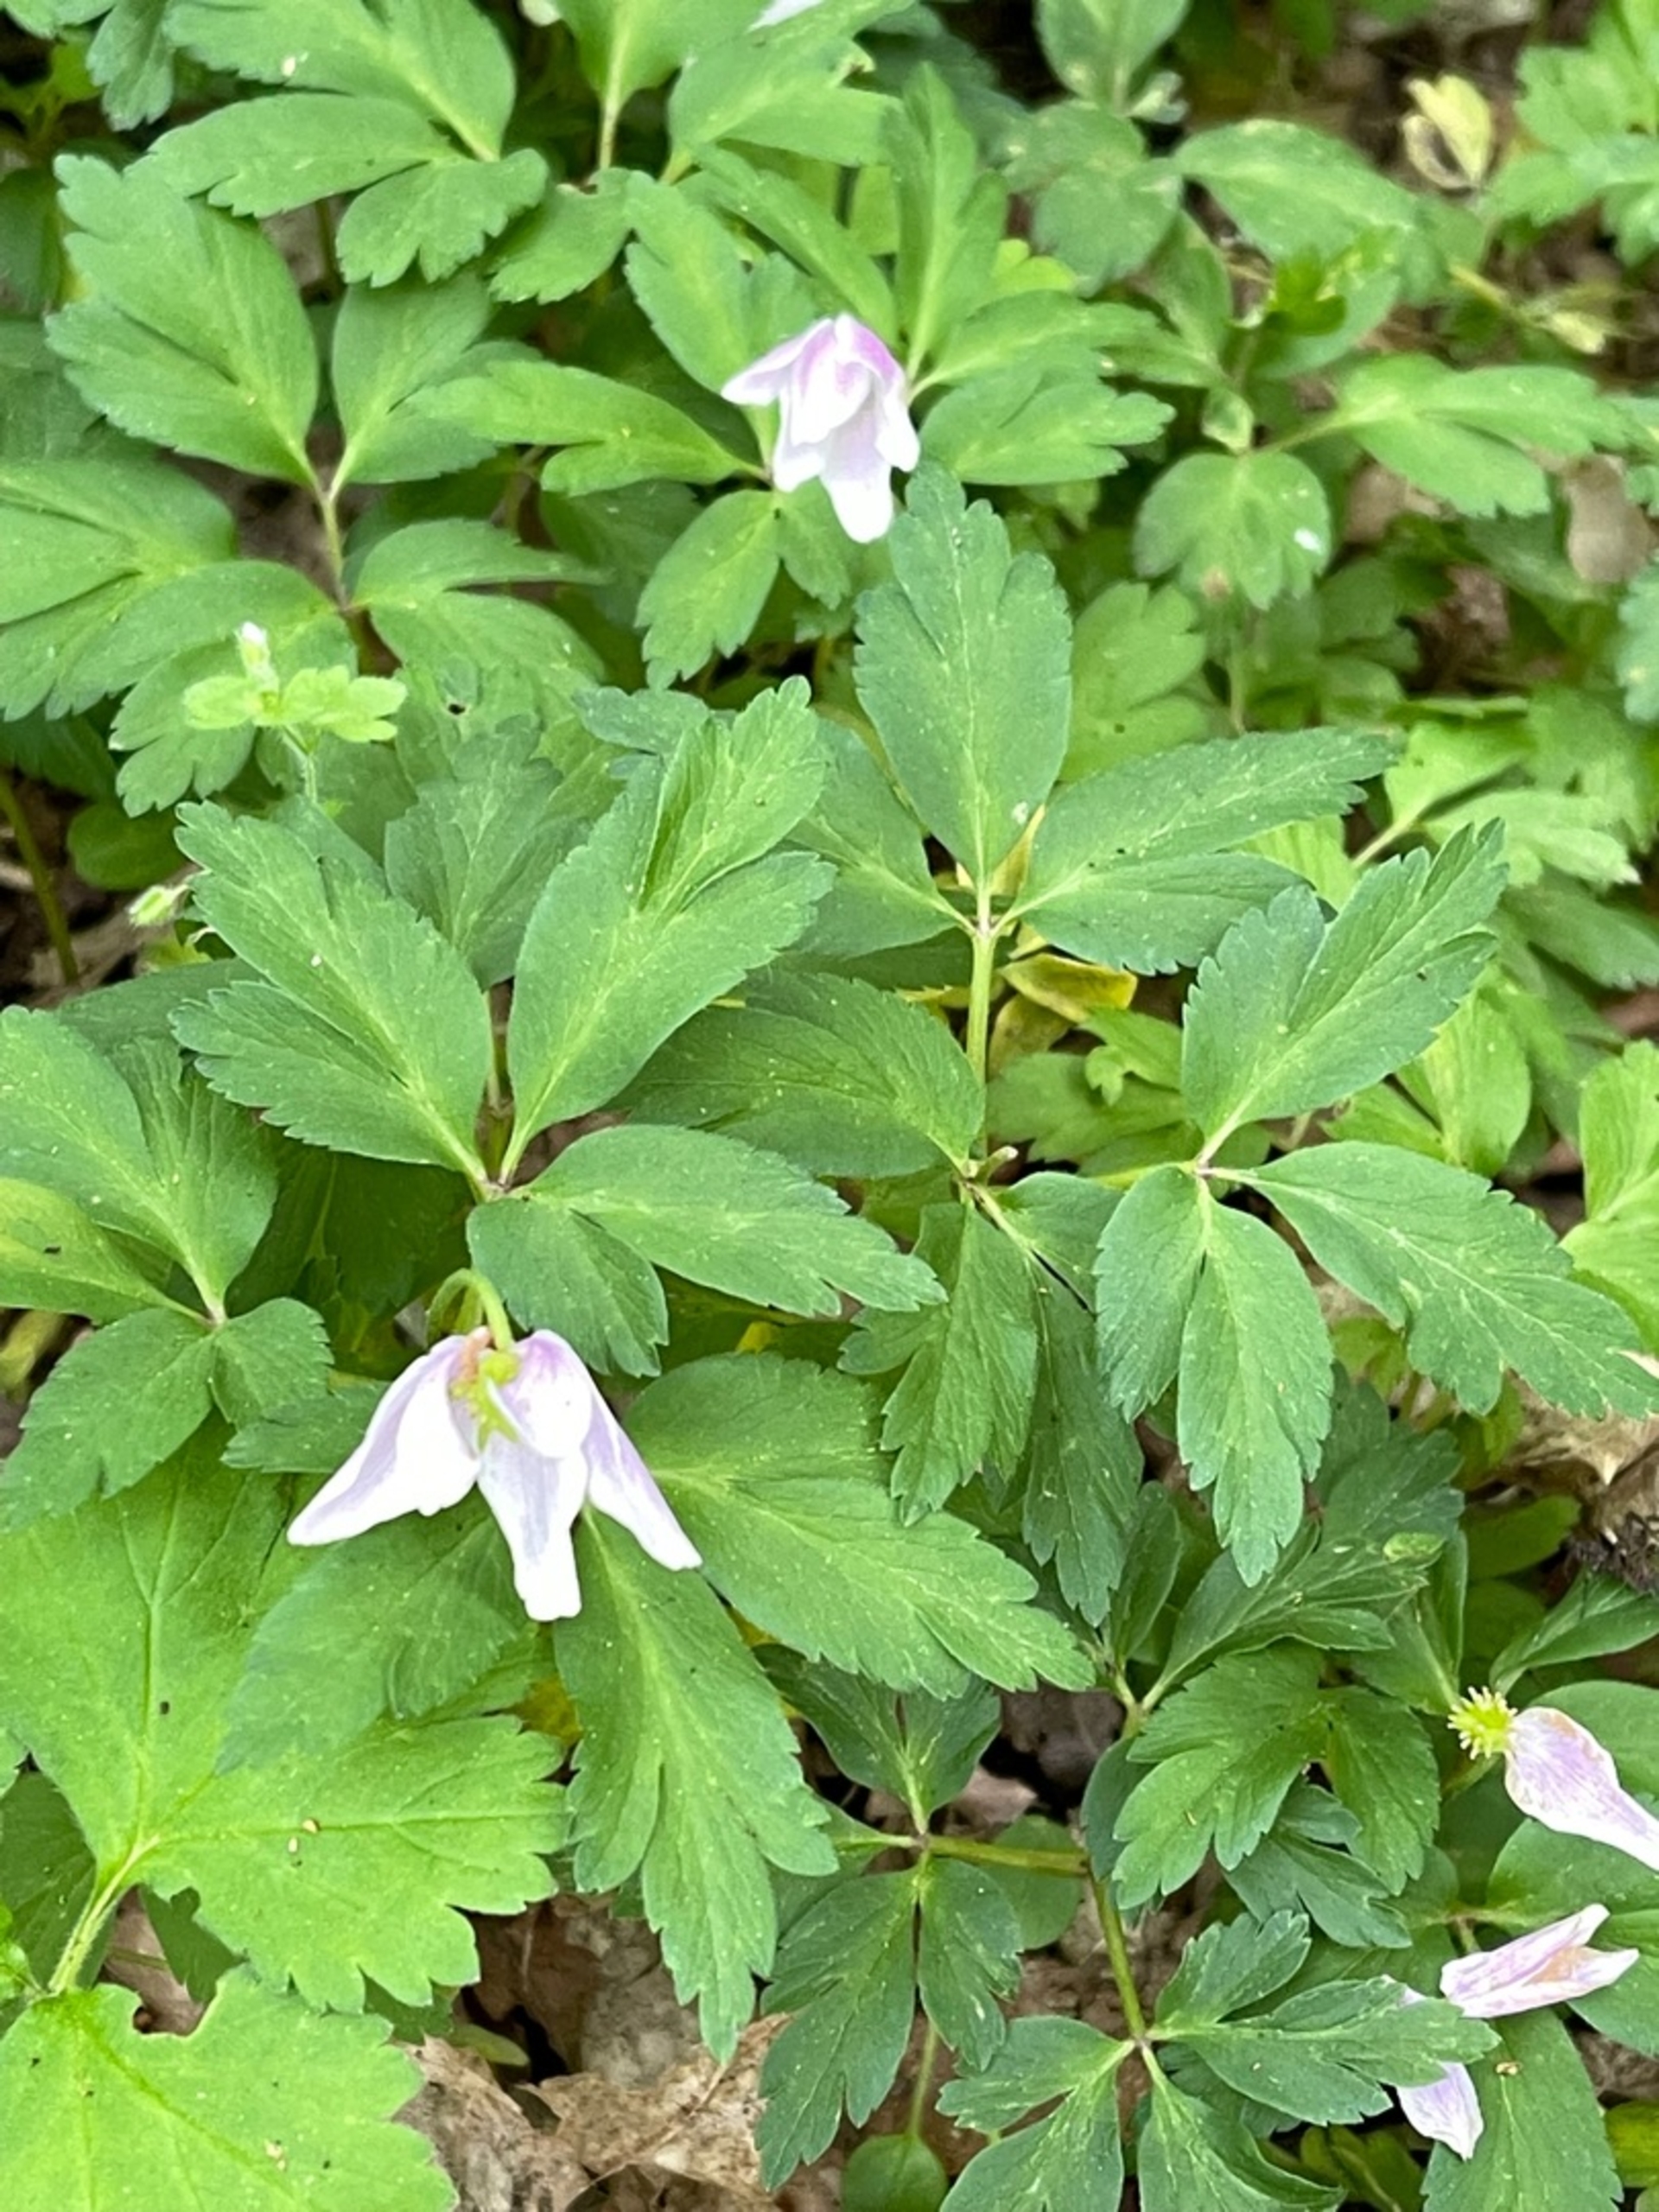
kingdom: Plantae
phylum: Tracheophyta
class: Magnoliopsida
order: Ranunculales
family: Ranunculaceae
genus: Anemone
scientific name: Anemone nemorosa
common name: Hvid anemone
